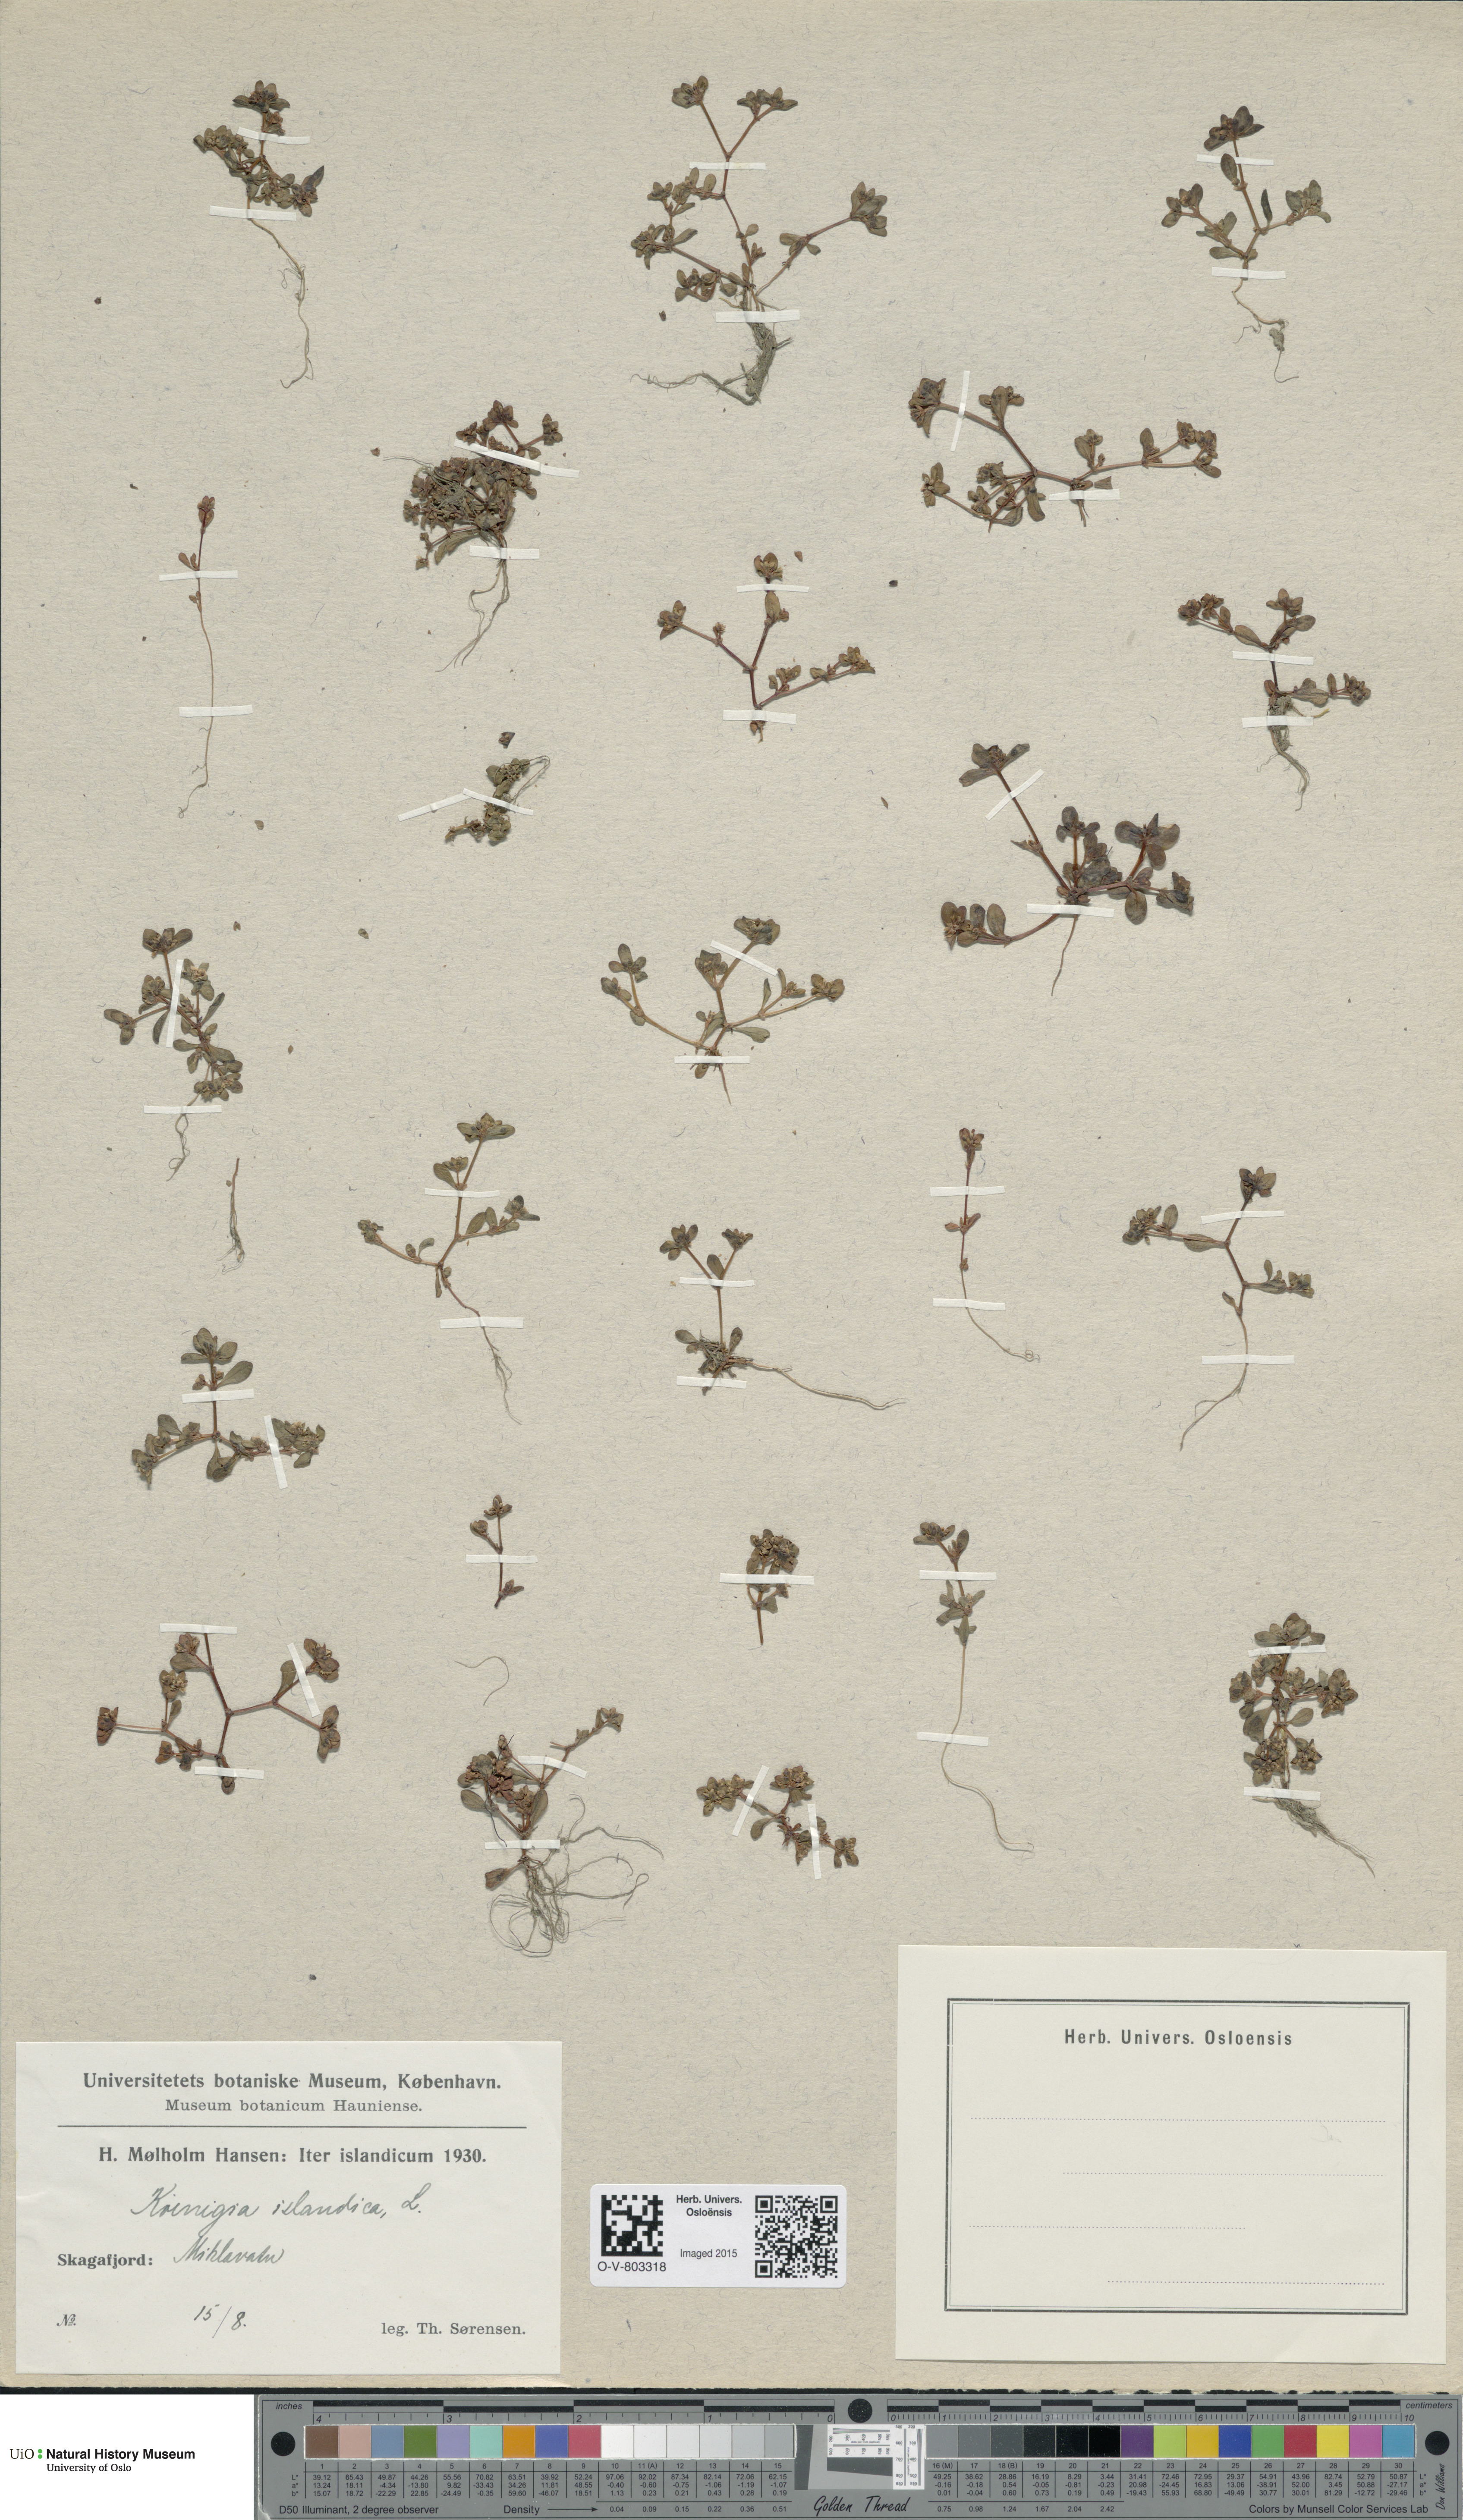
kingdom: Plantae
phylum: Tracheophyta
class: Magnoliopsida
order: Caryophyllales
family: Polygonaceae
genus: Koenigia
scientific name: Koenigia islandica
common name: Iceland-purslane
